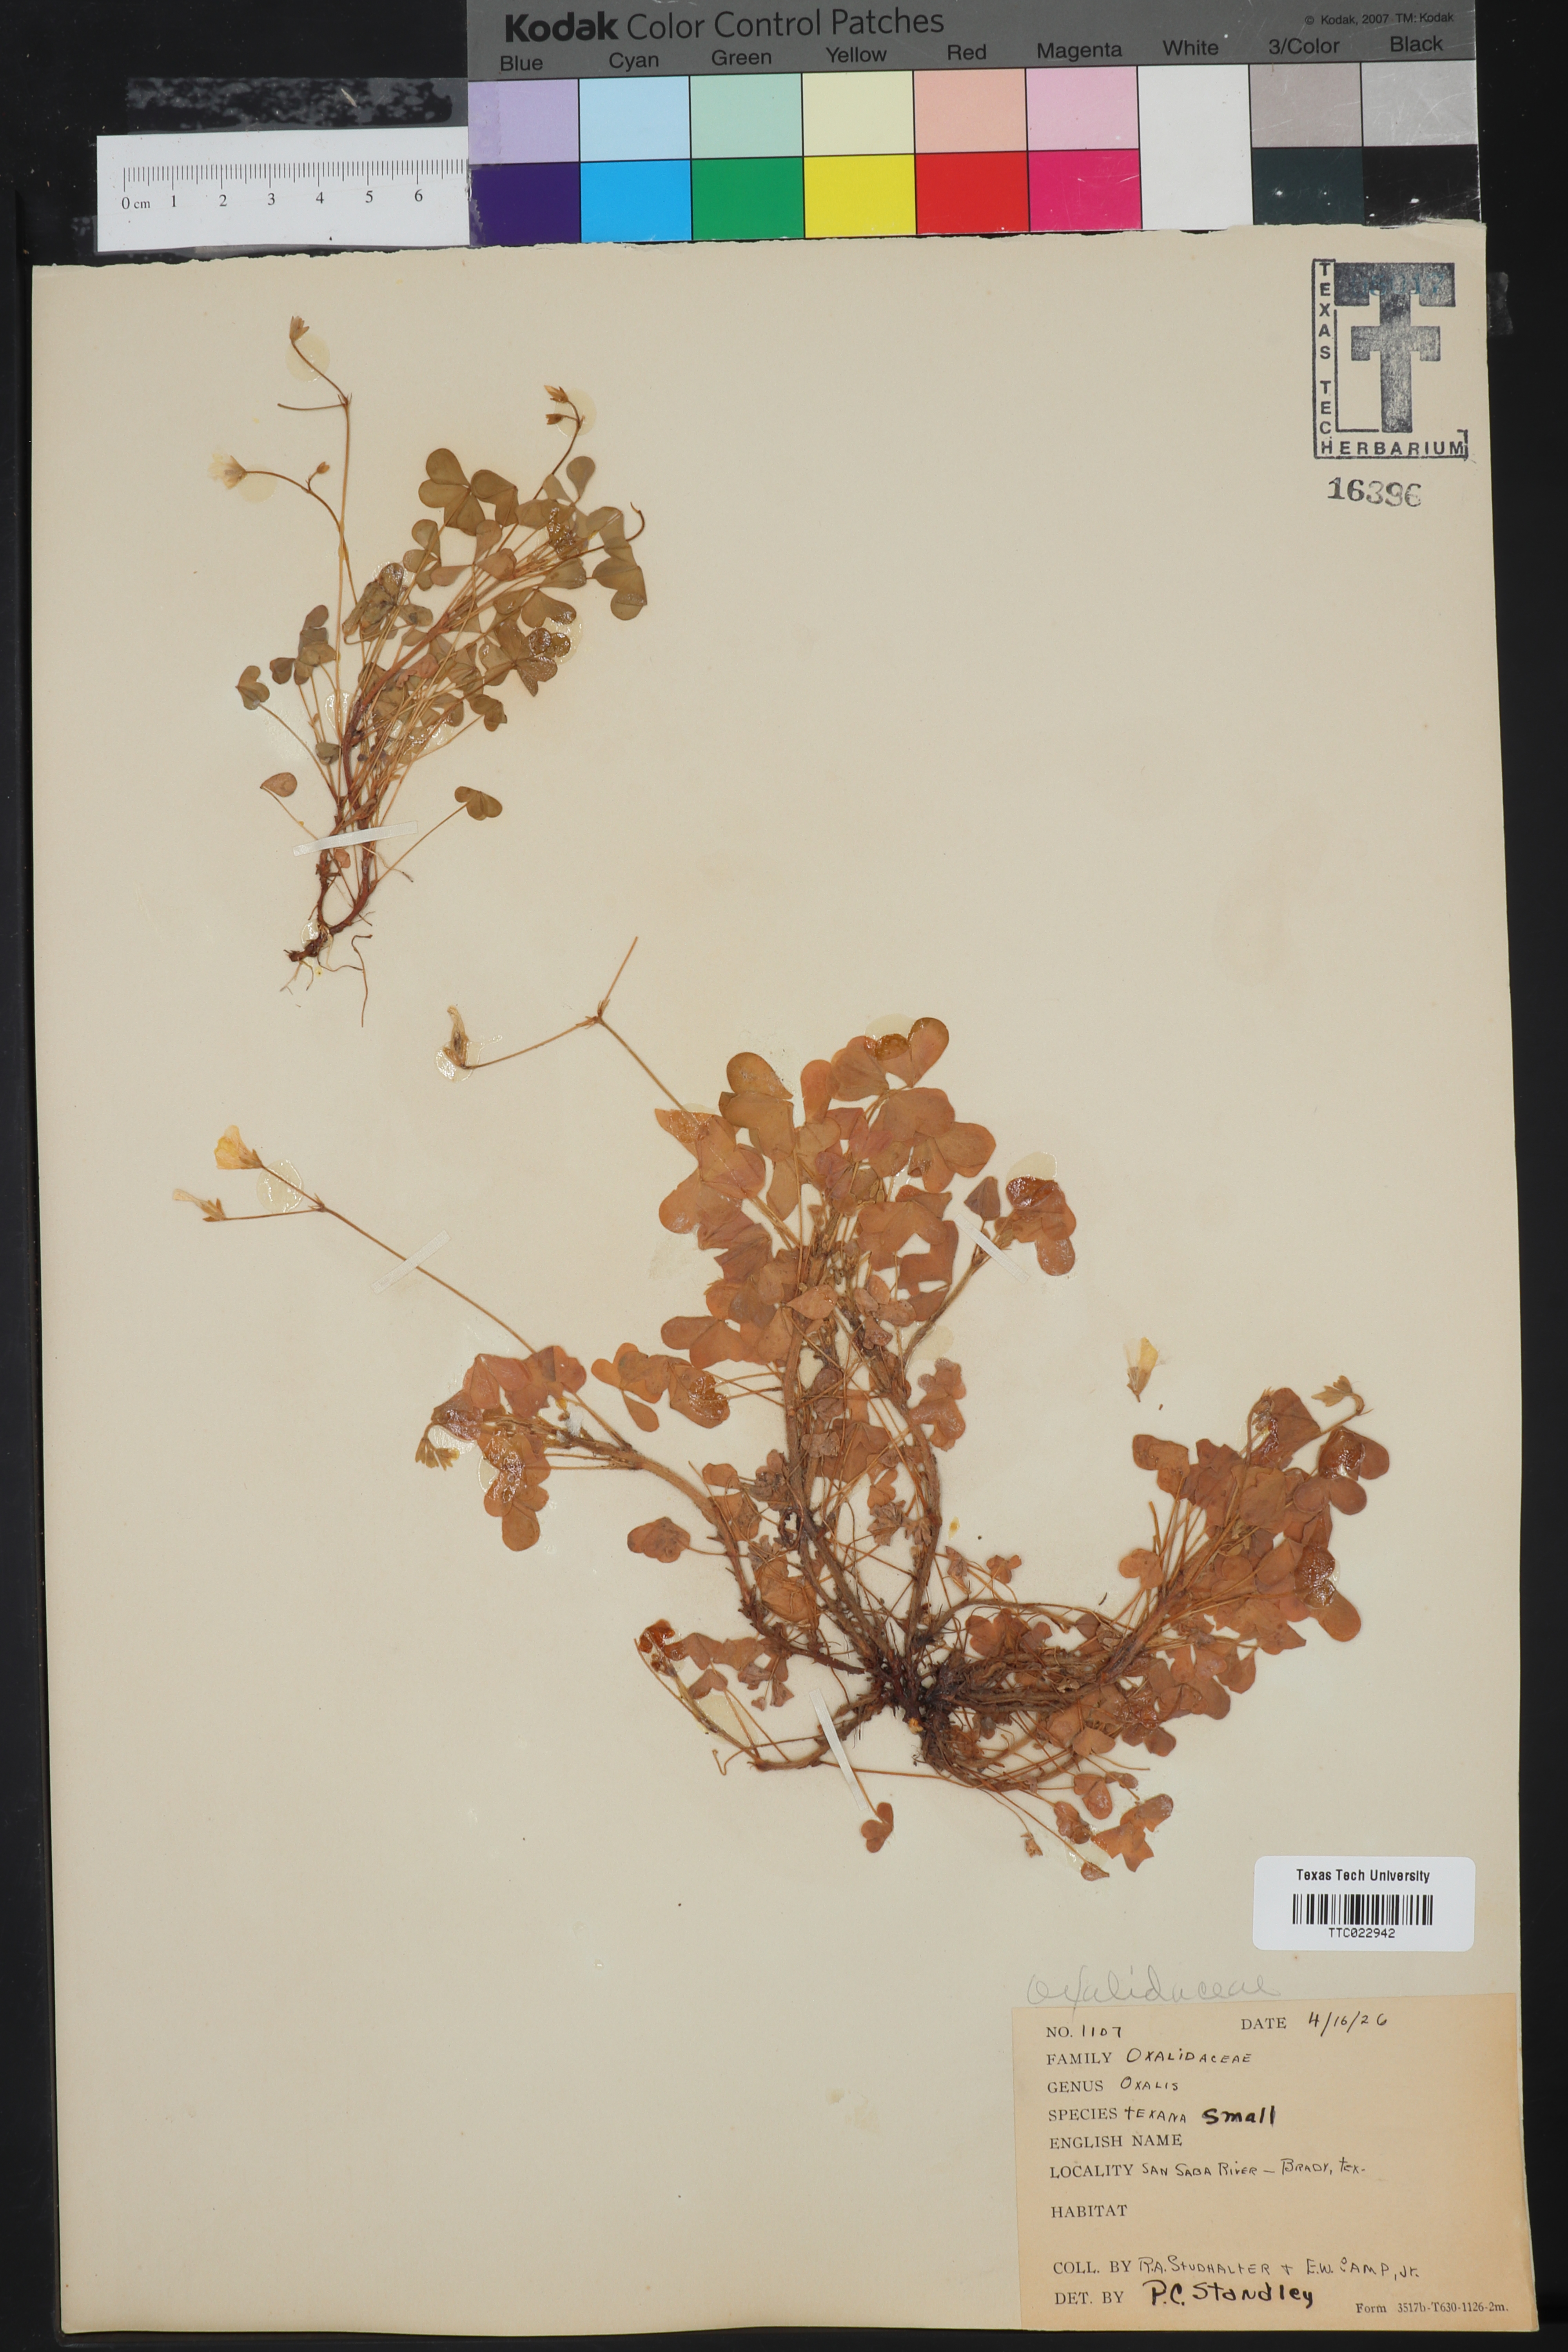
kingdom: Plantae
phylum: Tracheophyta
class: Magnoliopsida
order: Oxalidales
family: Oxalidaceae
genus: Oxalis
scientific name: Oxalis texana
